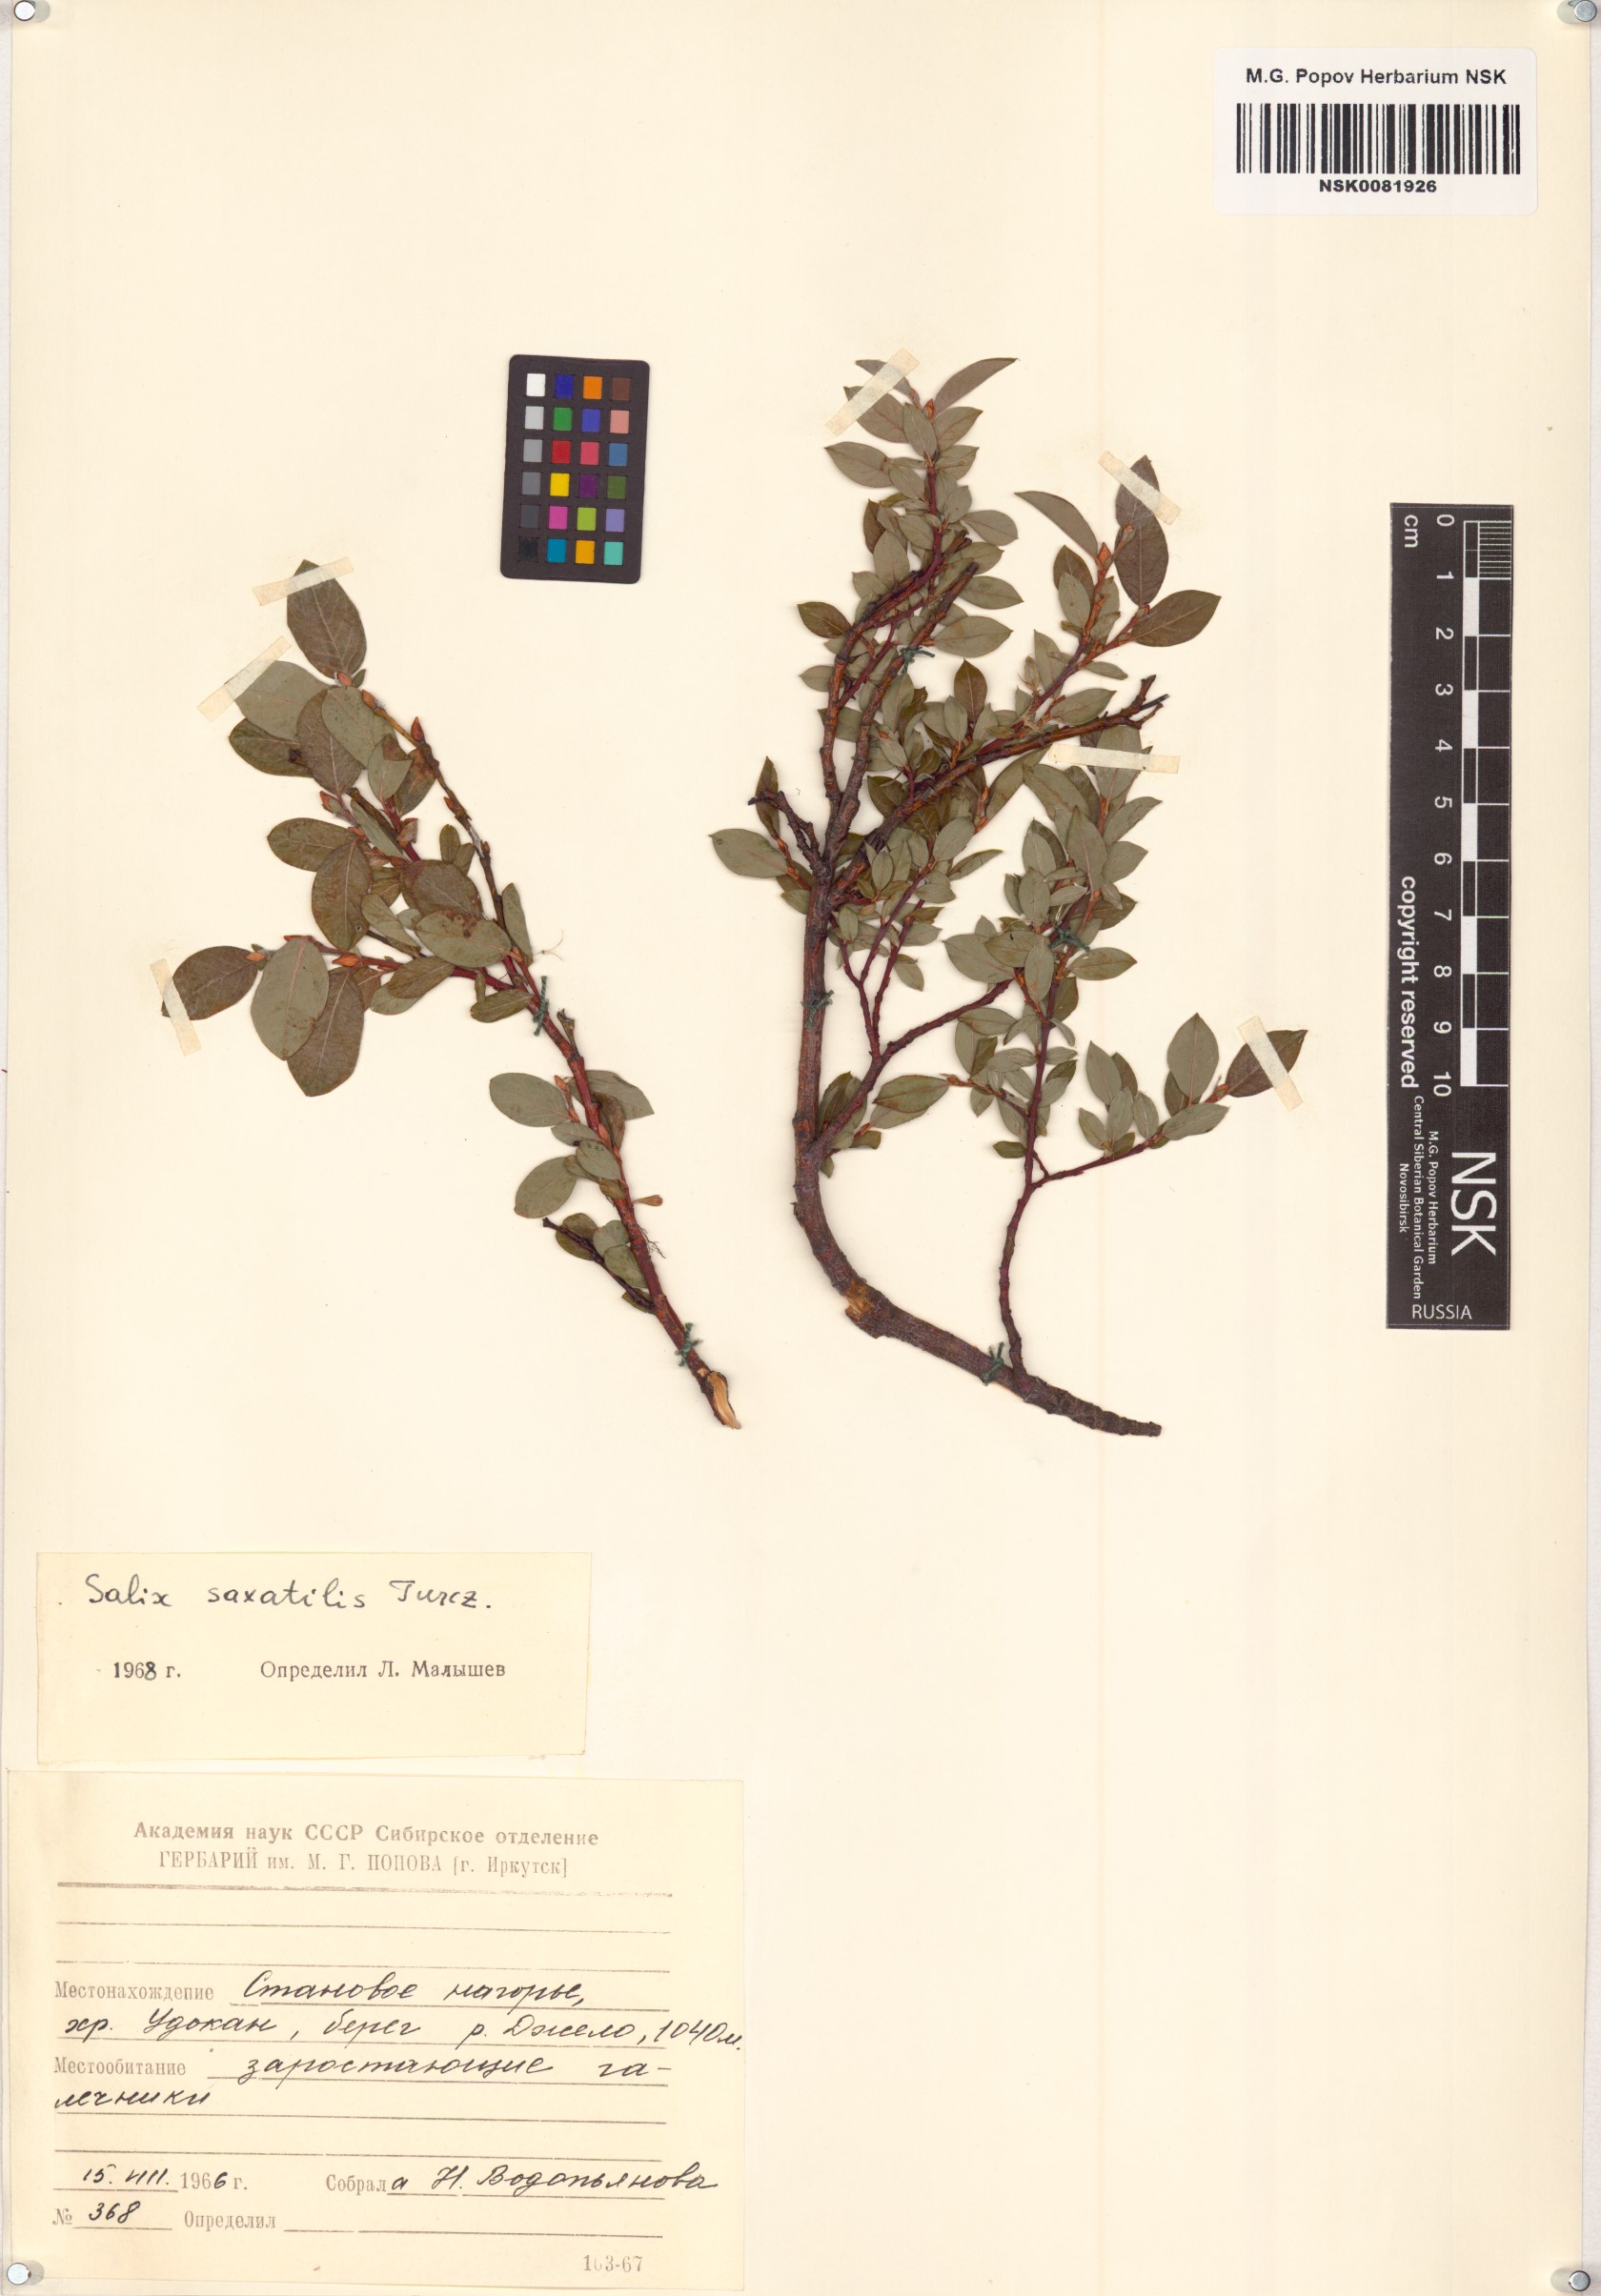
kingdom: Plantae
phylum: Tracheophyta
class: Magnoliopsida
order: Malpighiales
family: Salicaceae
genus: Salix
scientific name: Salix saxatilis
